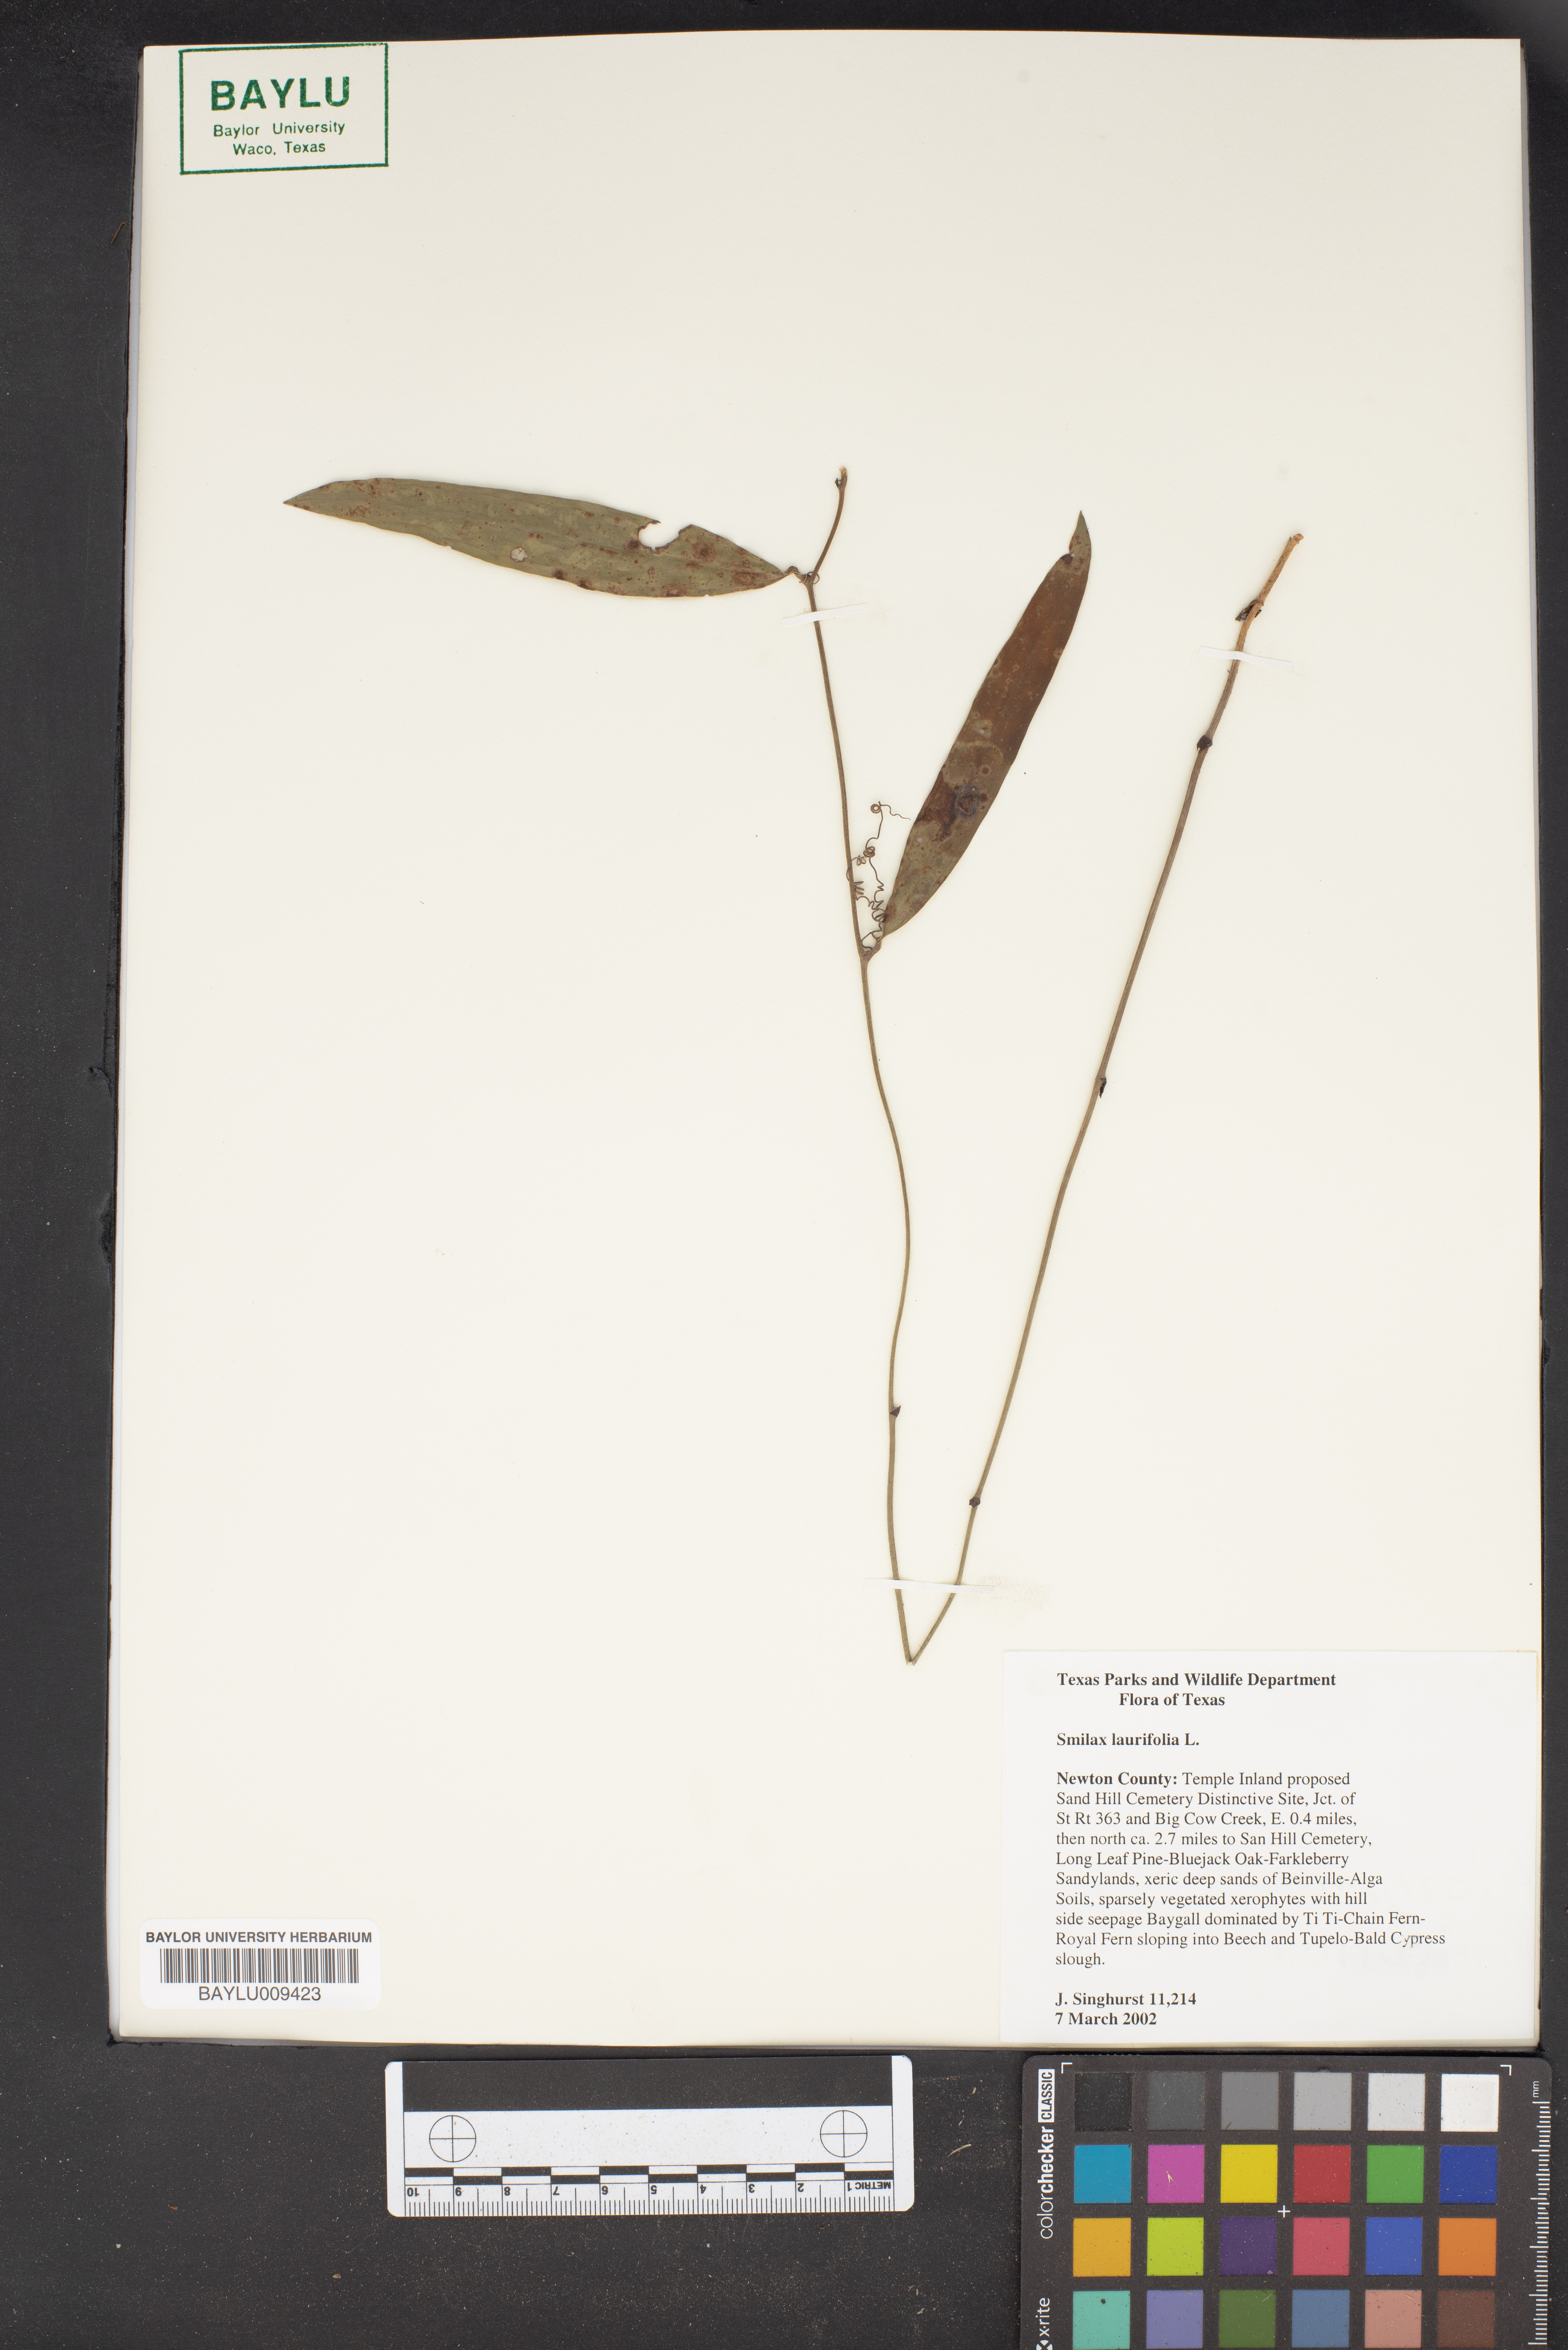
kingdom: Plantae
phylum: Tracheophyta
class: Liliopsida
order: Liliales
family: Smilacaceae
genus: Smilax
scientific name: Smilax laurifolia
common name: Bamboovine
